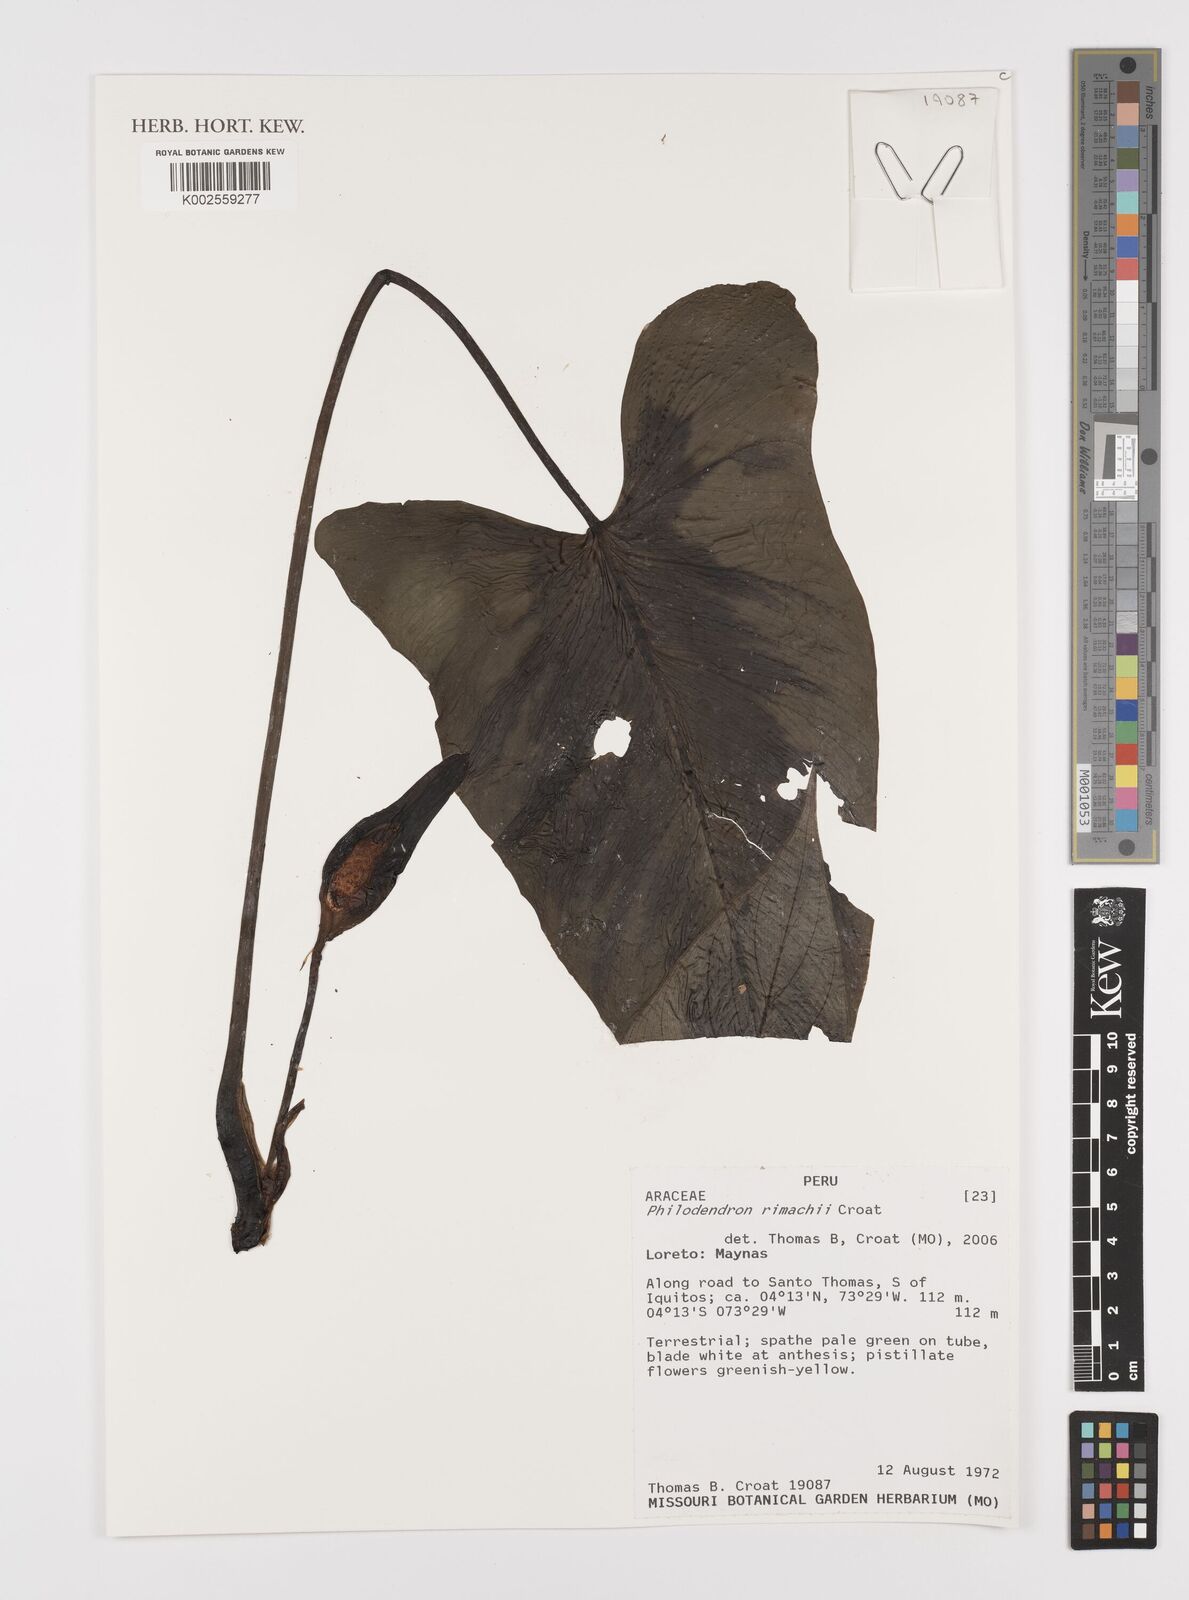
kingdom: Plantae
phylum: Tracheophyta
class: Liliopsida
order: Alismatales
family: Araceae
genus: Philodendron
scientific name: Philodendron rimachii
